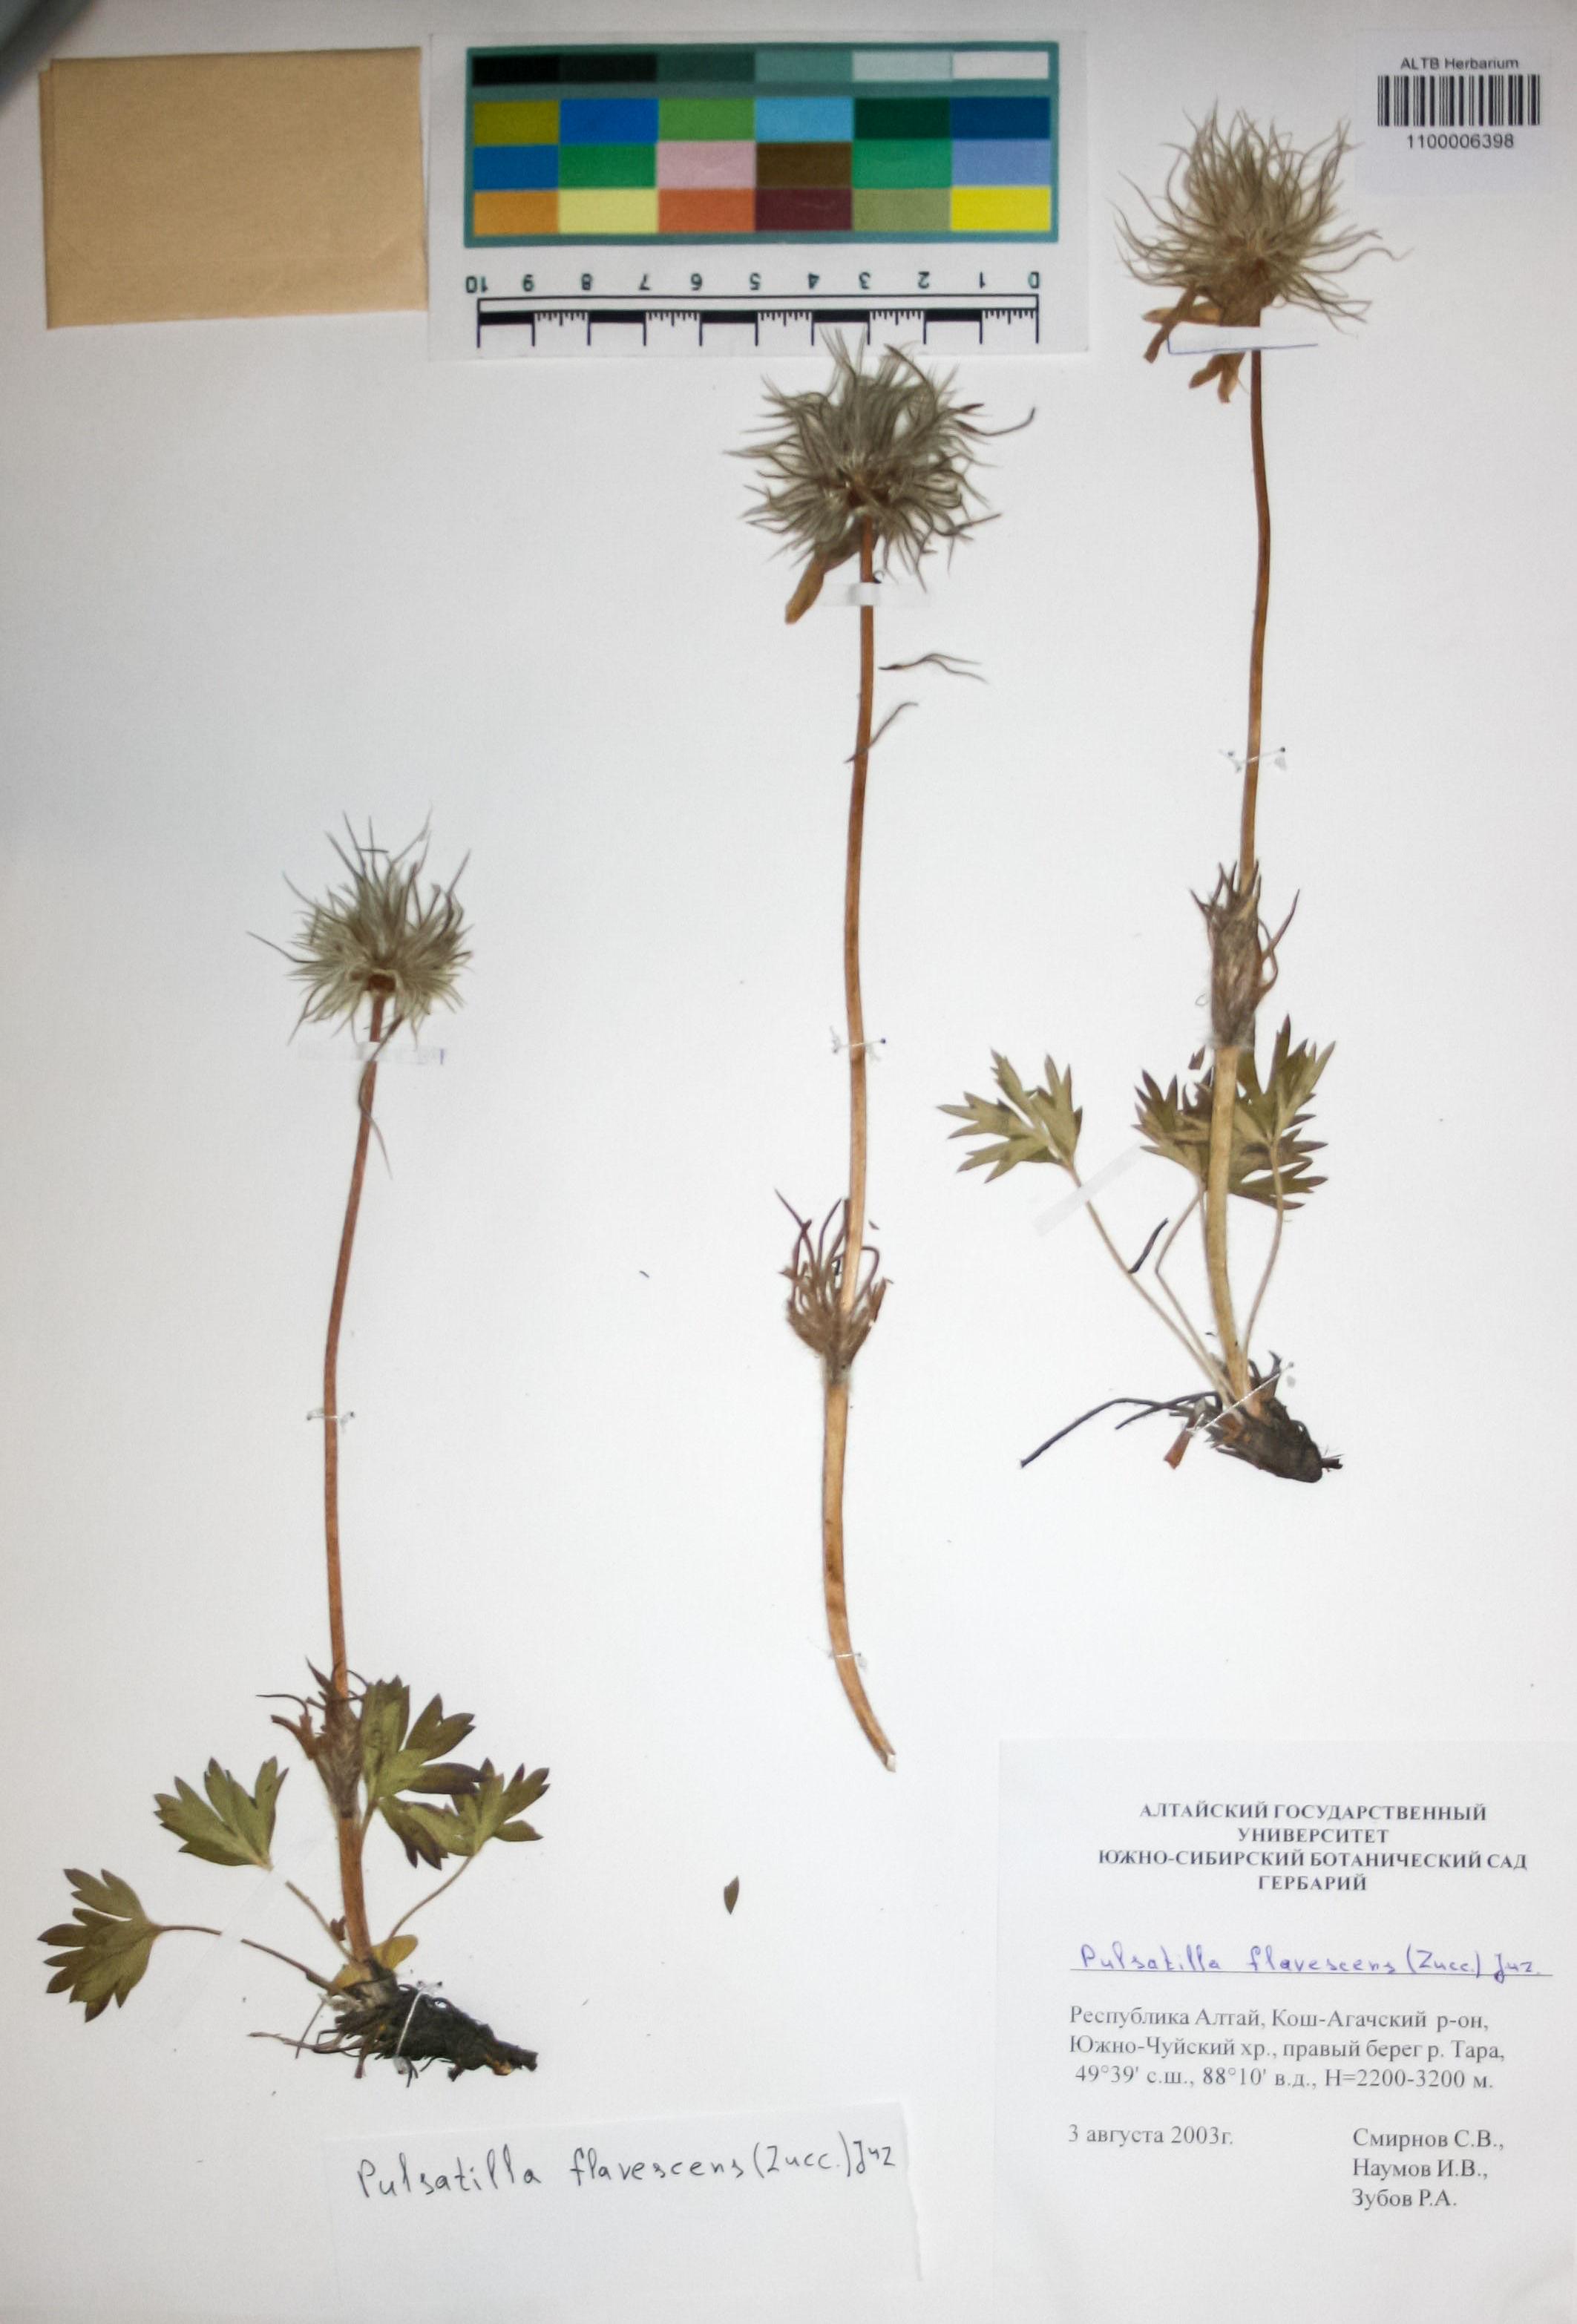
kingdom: Plantae
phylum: Tracheophyta
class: Magnoliopsida
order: Ranunculales
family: Ranunculaceae
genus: Pulsatilla
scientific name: Pulsatilla patens
